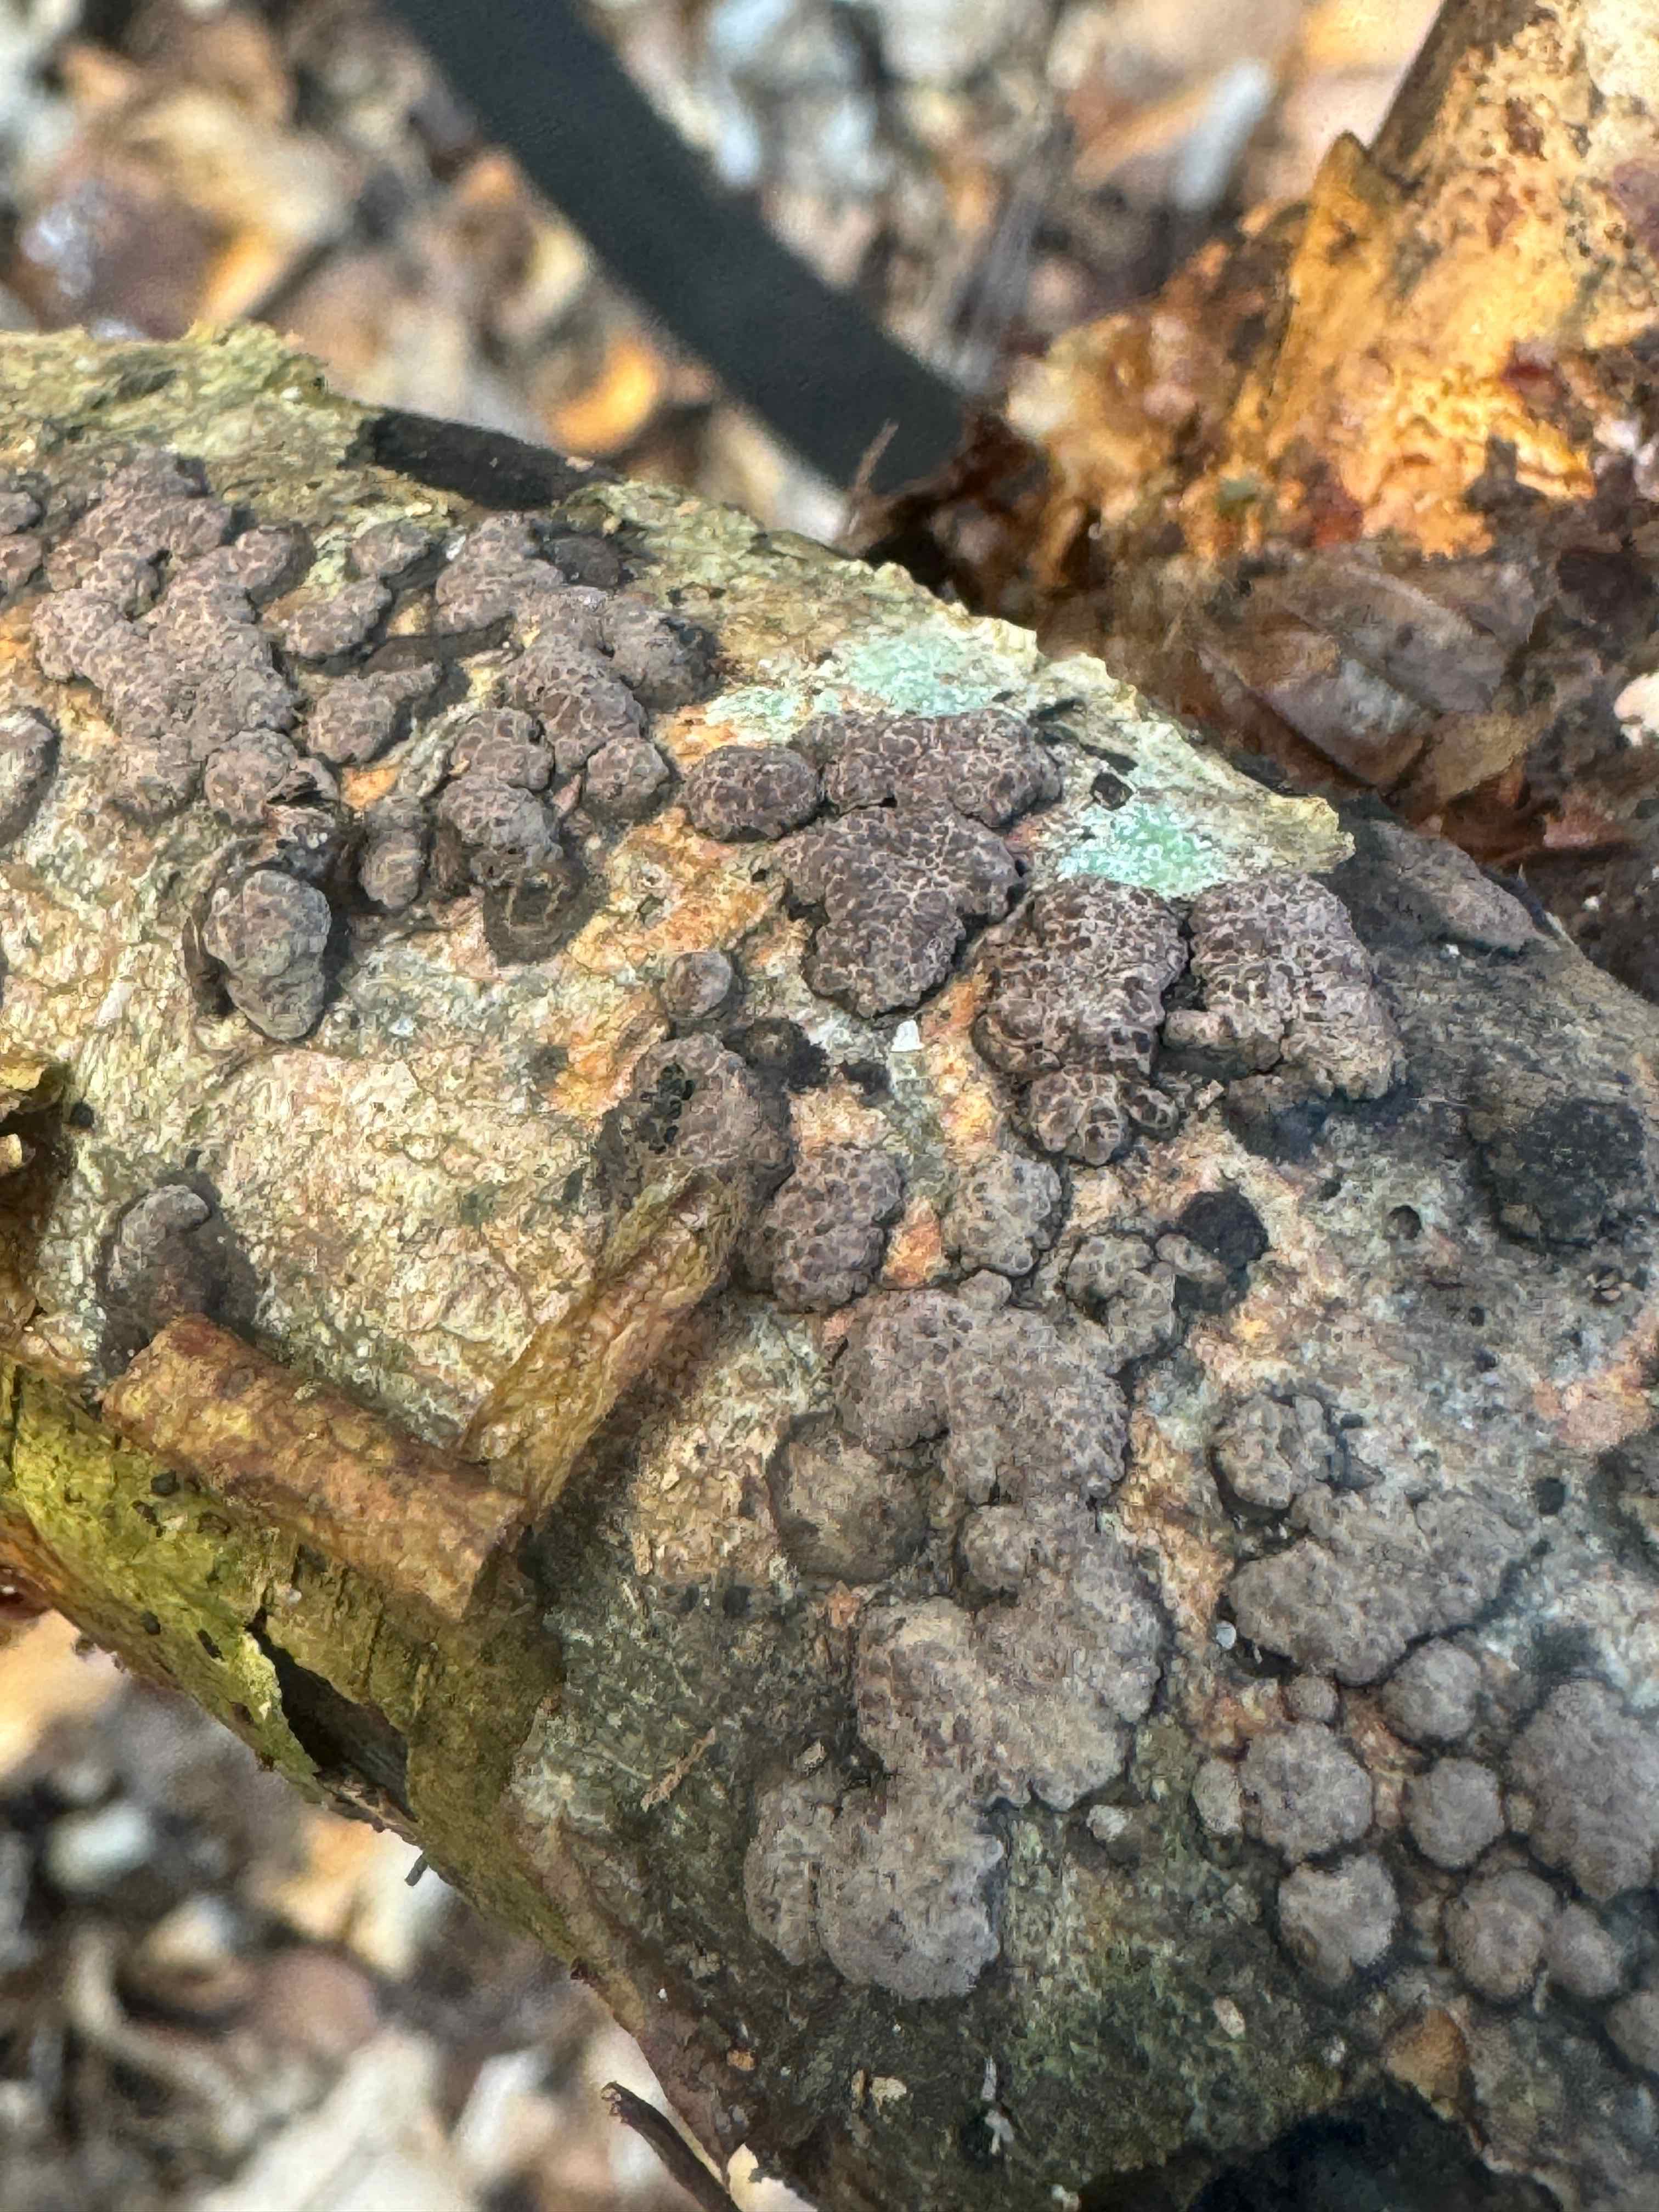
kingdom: Fungi
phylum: Ascomycota
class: Sordariomycetes
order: Xylariales
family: Hypoxylaceae
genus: Jackrogersella
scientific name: Jackrogersella cohaerens
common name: sammenflydende kulbær
